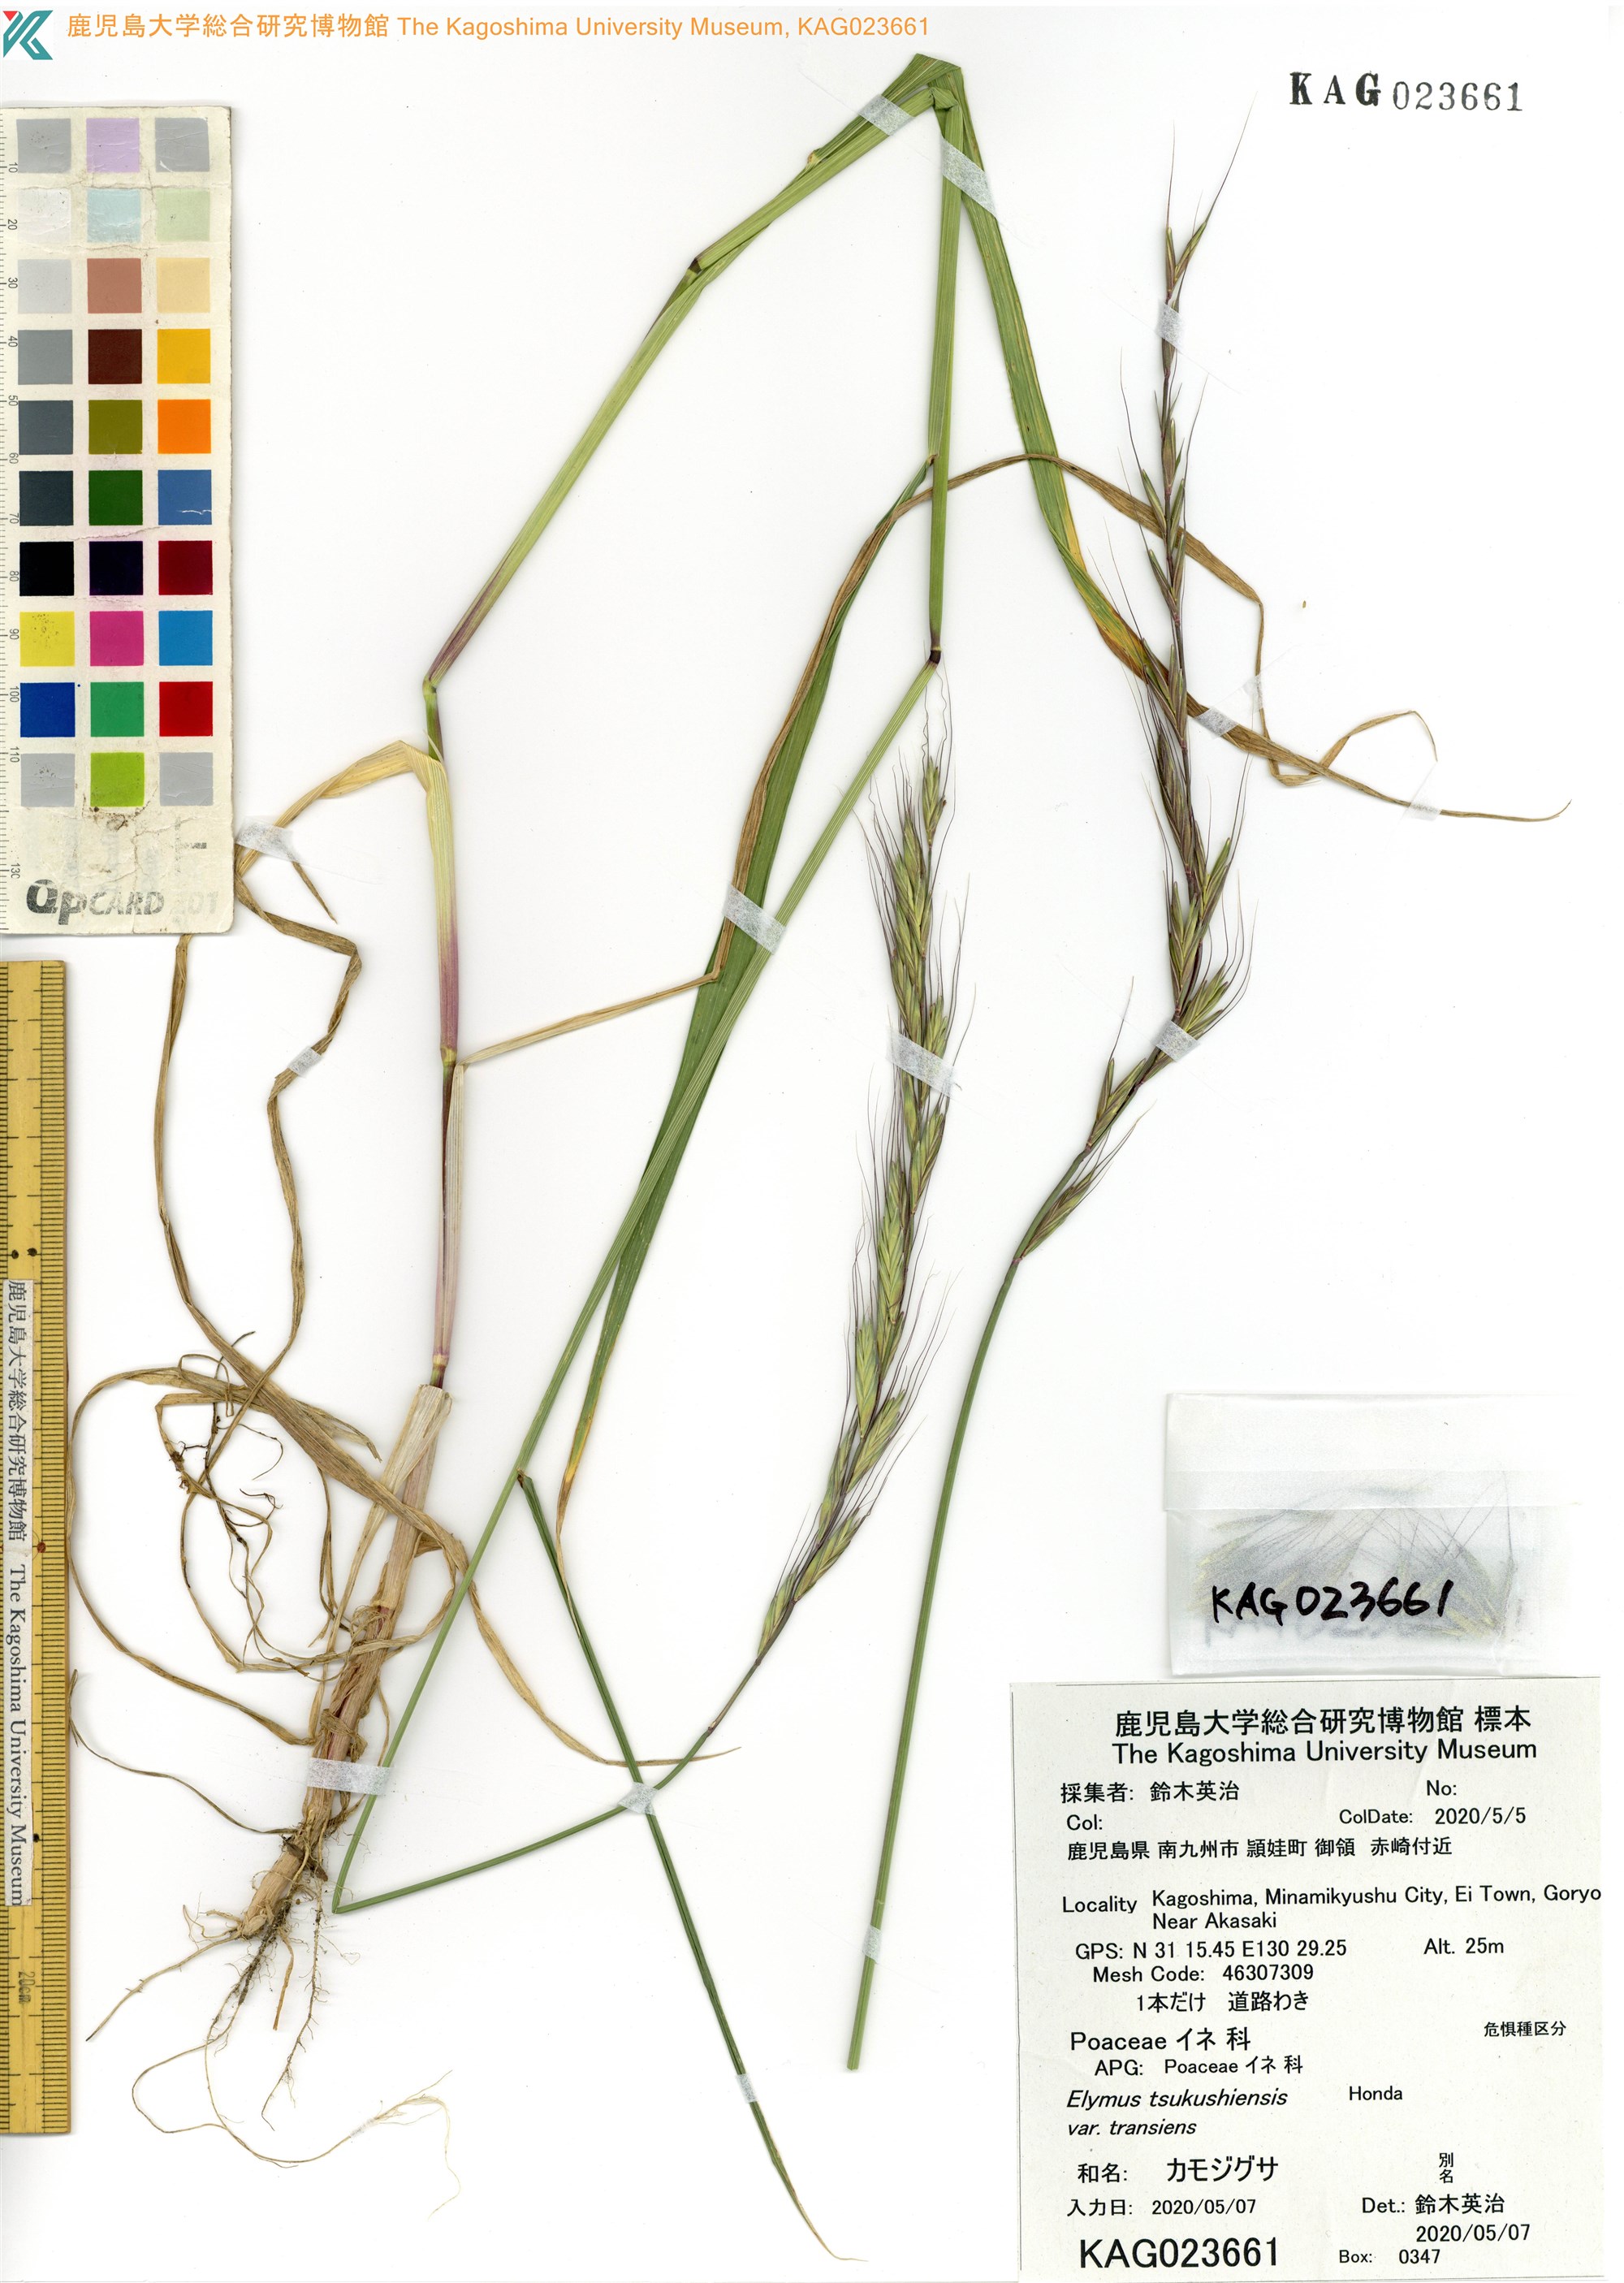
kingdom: Plantae
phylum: Tracheophyta
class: Liliopsida
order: Poales
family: Poaceae
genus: Elymus
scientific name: Elymus tsukushiensis
